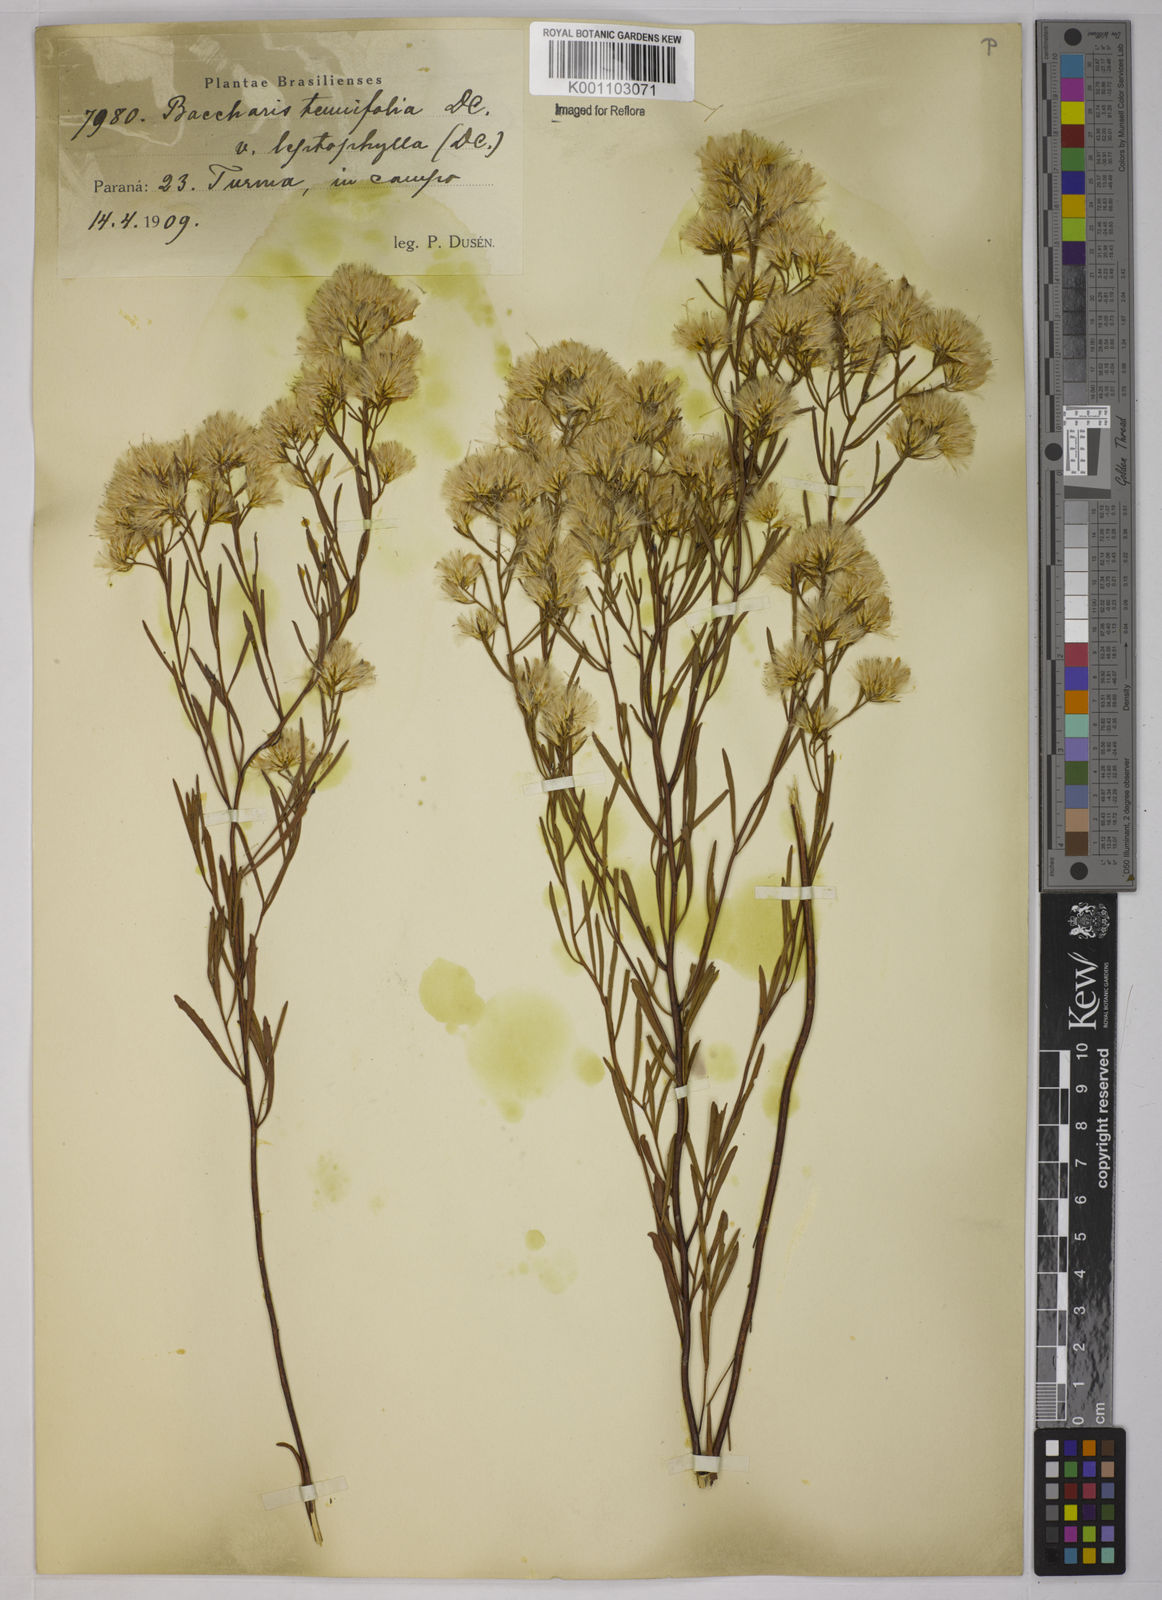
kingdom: Plantae
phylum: Tracheophyta
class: Magnoliopsida
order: Asterales
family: Asteraceae
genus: Baccharis
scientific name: Baccharis leptocephala
